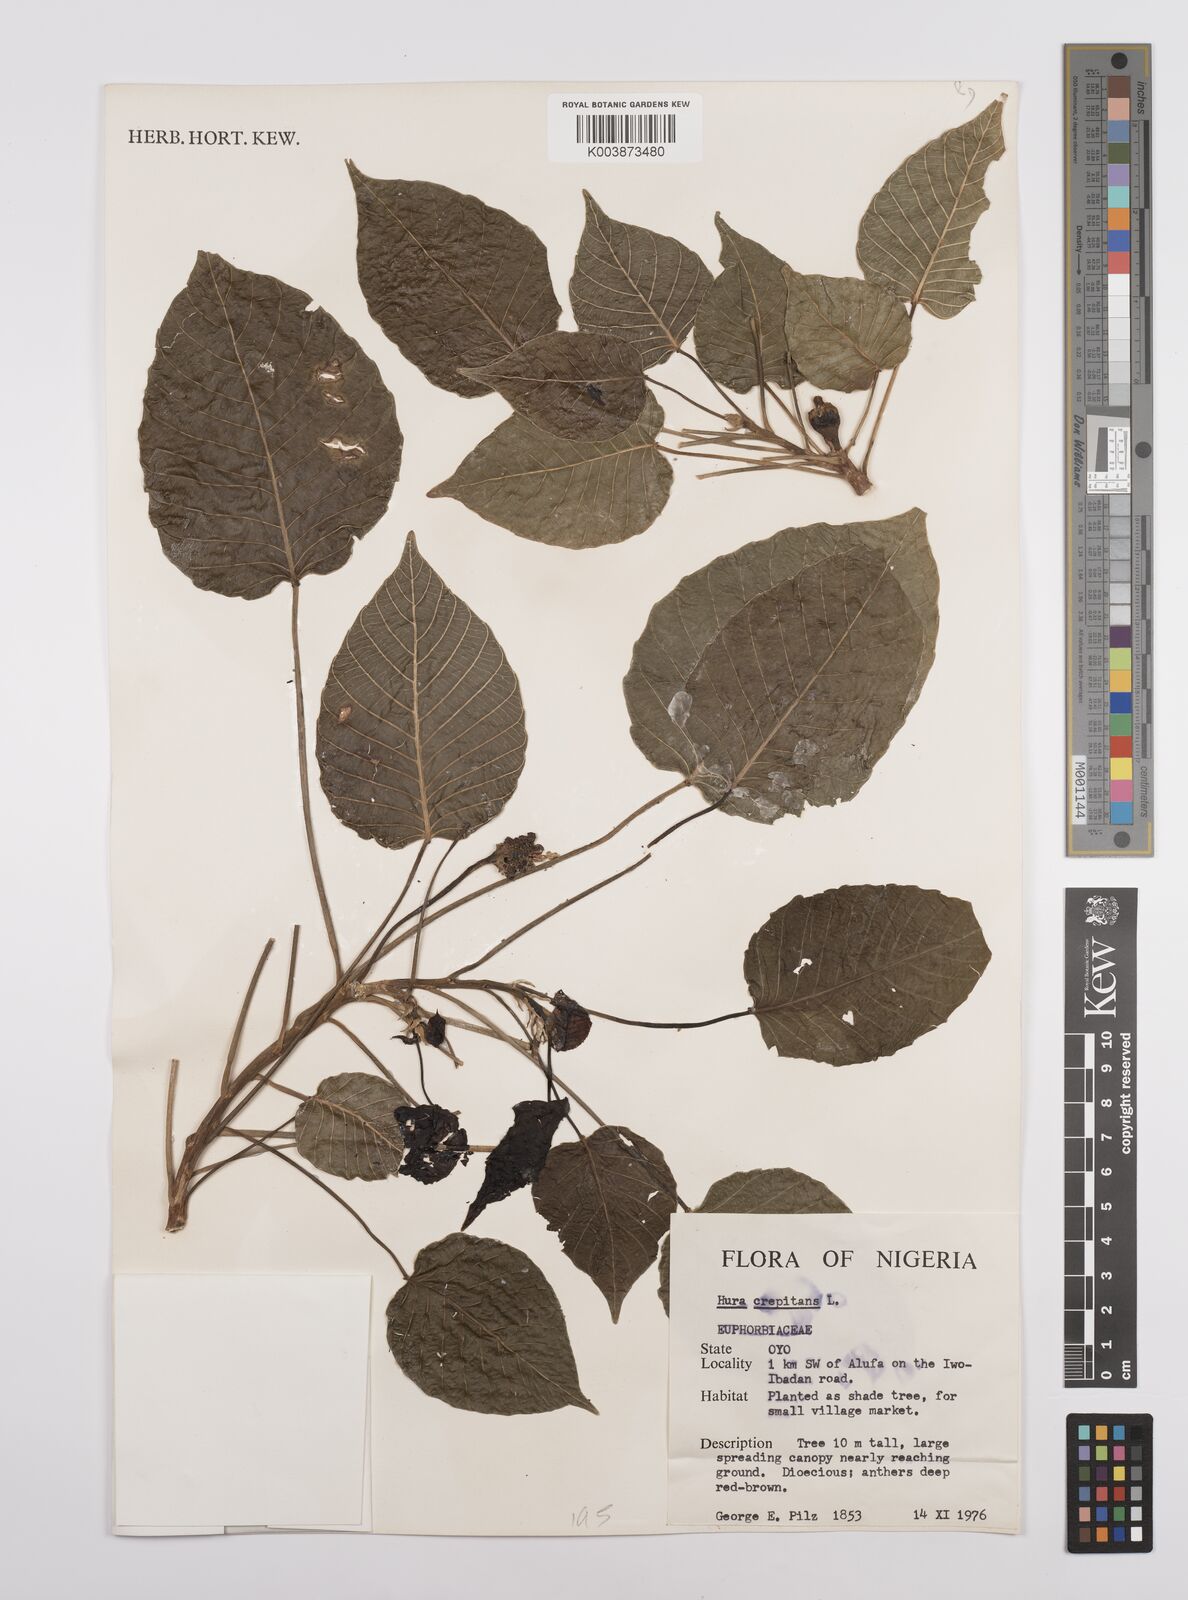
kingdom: Plantae
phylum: Tracheophyta
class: Magnoliopsida
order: Malpighiales
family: Euphorbiaceae
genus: Hura
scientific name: Hura crepitans
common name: Sandboxtree
